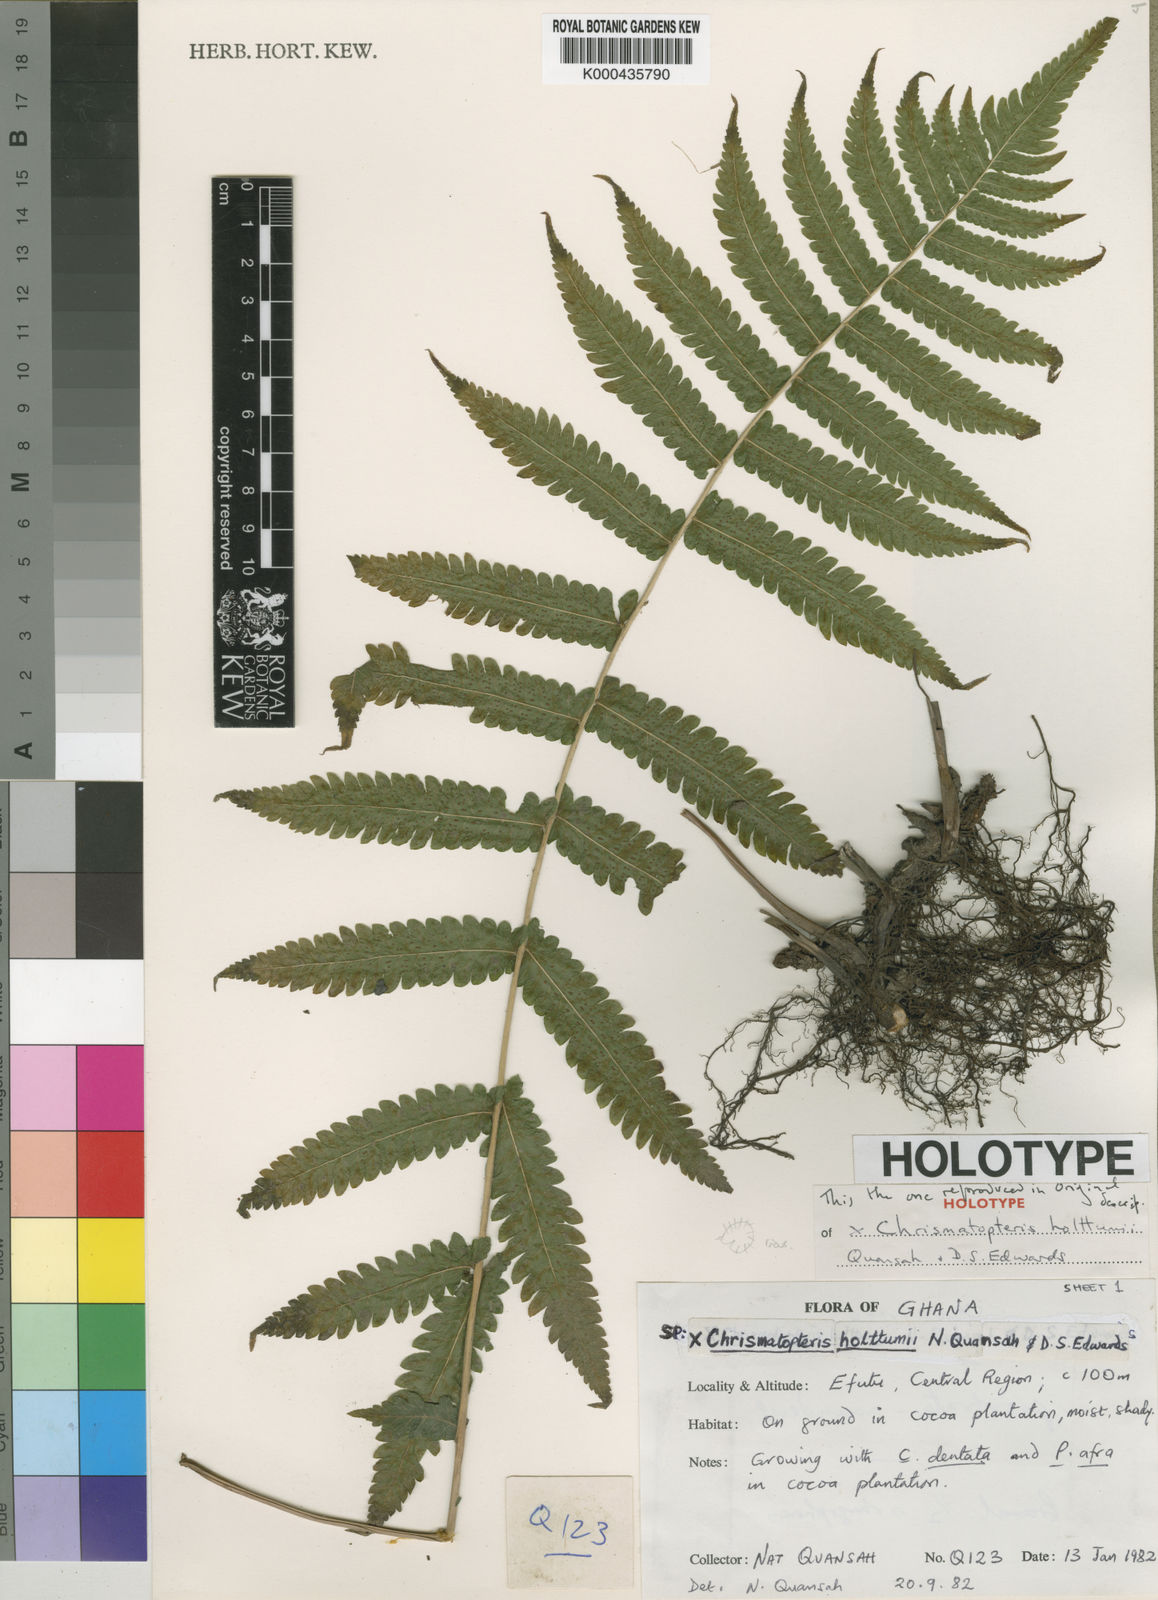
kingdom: Plantae
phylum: Tracheophyta
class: Polypodiopsida
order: Polypodiales
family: Thelypteridaceae
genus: Chrismatopteris
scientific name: Chrismatopteris holttumii
